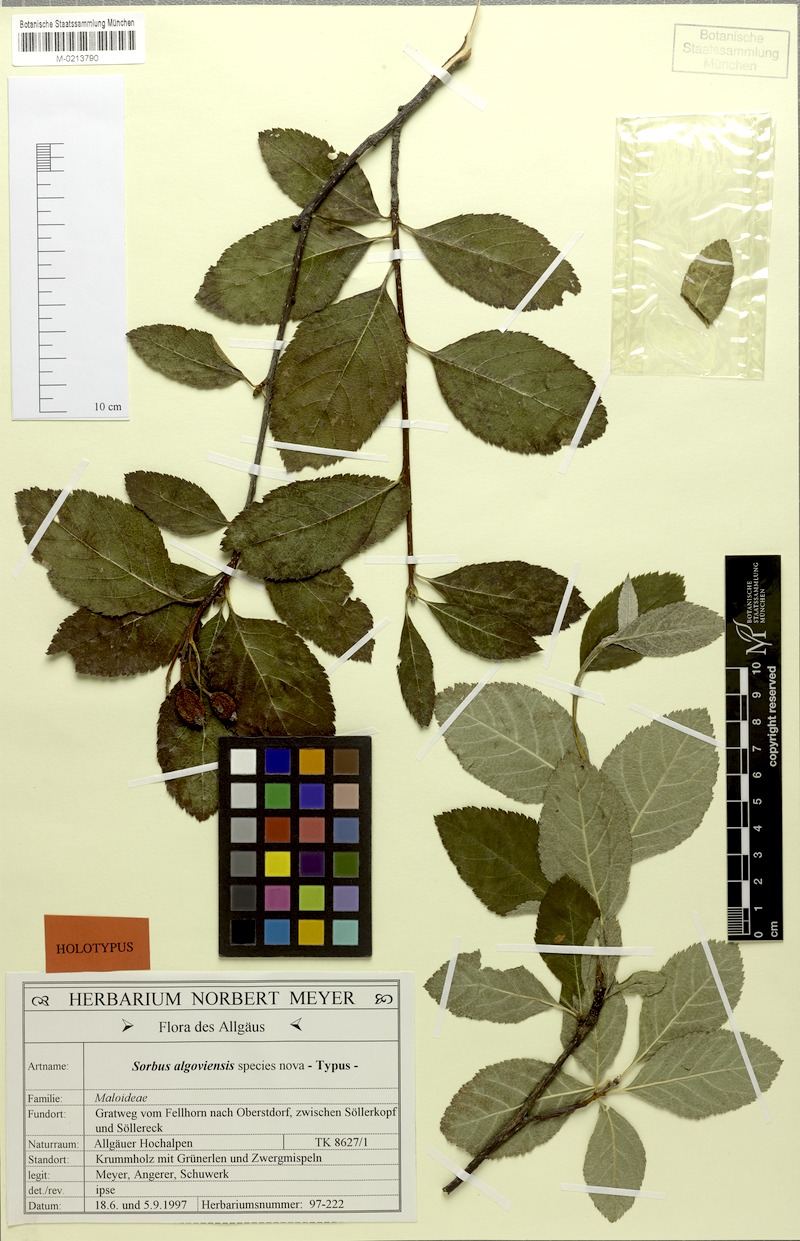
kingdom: Plantae
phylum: Tracheophyta
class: Magnoliopsida
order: Rosales
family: Rosaceae
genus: Majovskya
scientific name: Majovskya algoviensis
